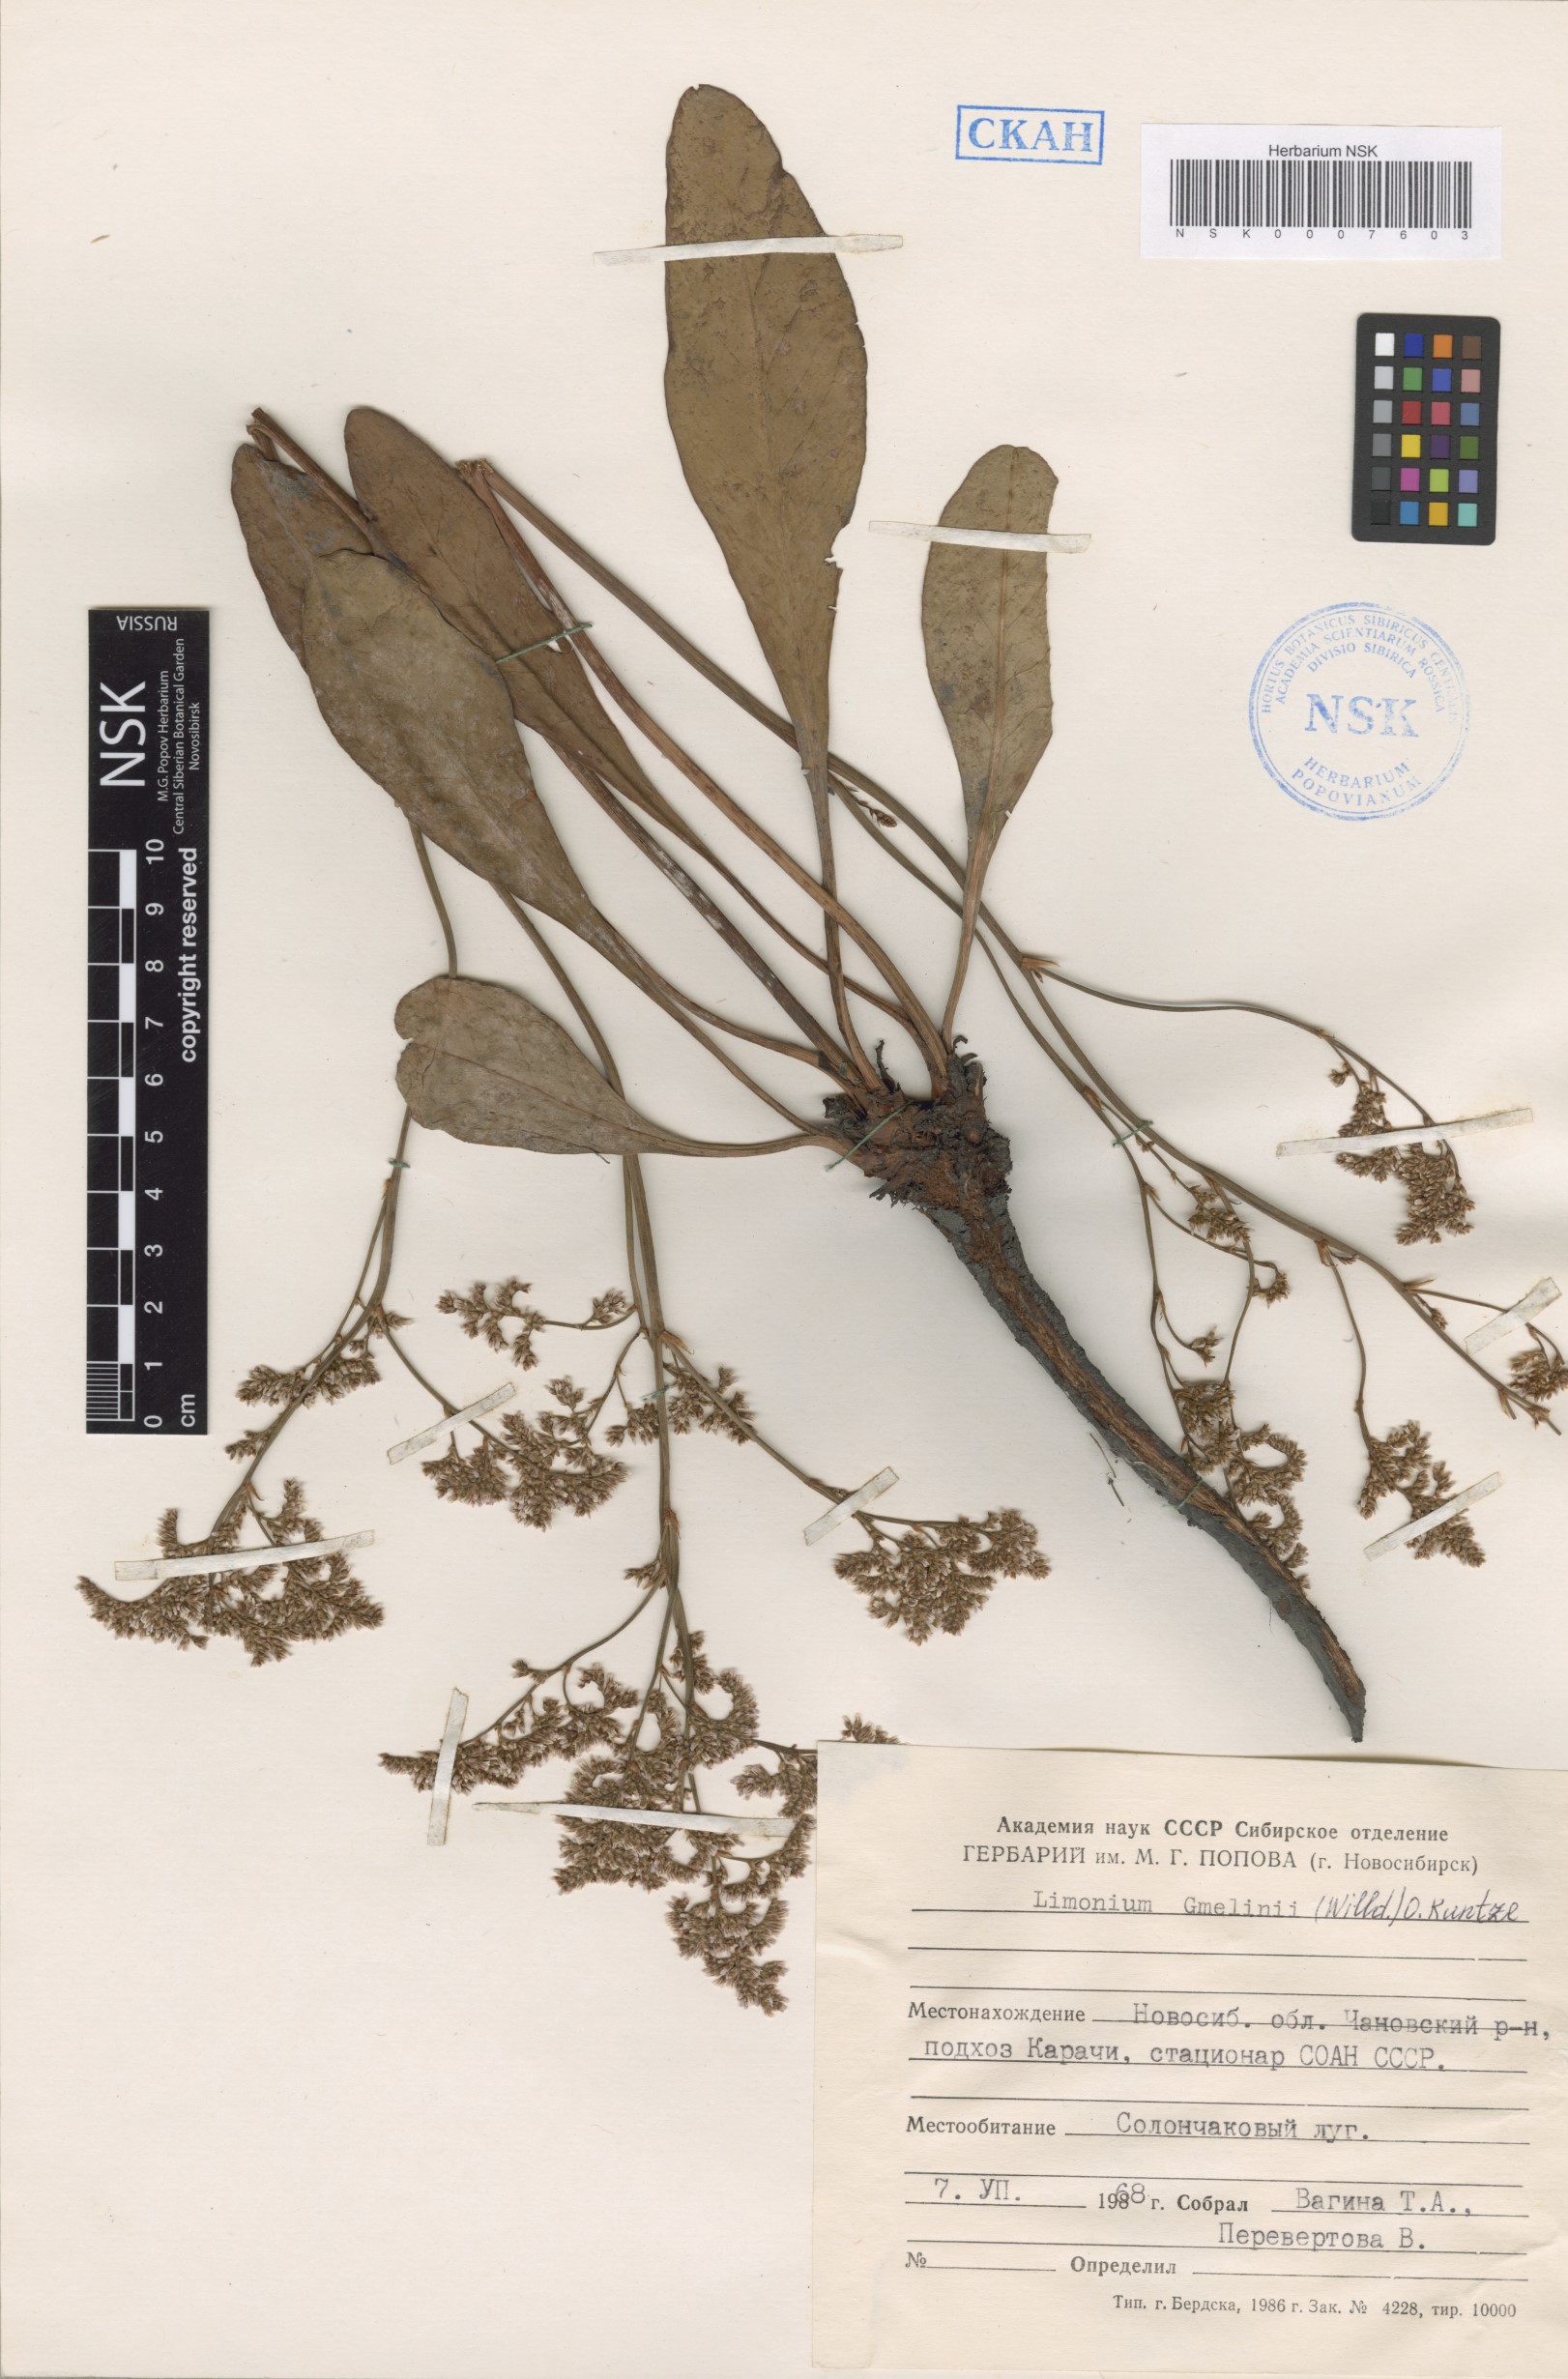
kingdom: Plantae
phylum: Tracheophyta
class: Magnoliopsida
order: Caryophyllales
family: Plumbaginaceae
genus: Limonium
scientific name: Limonium gmelini
